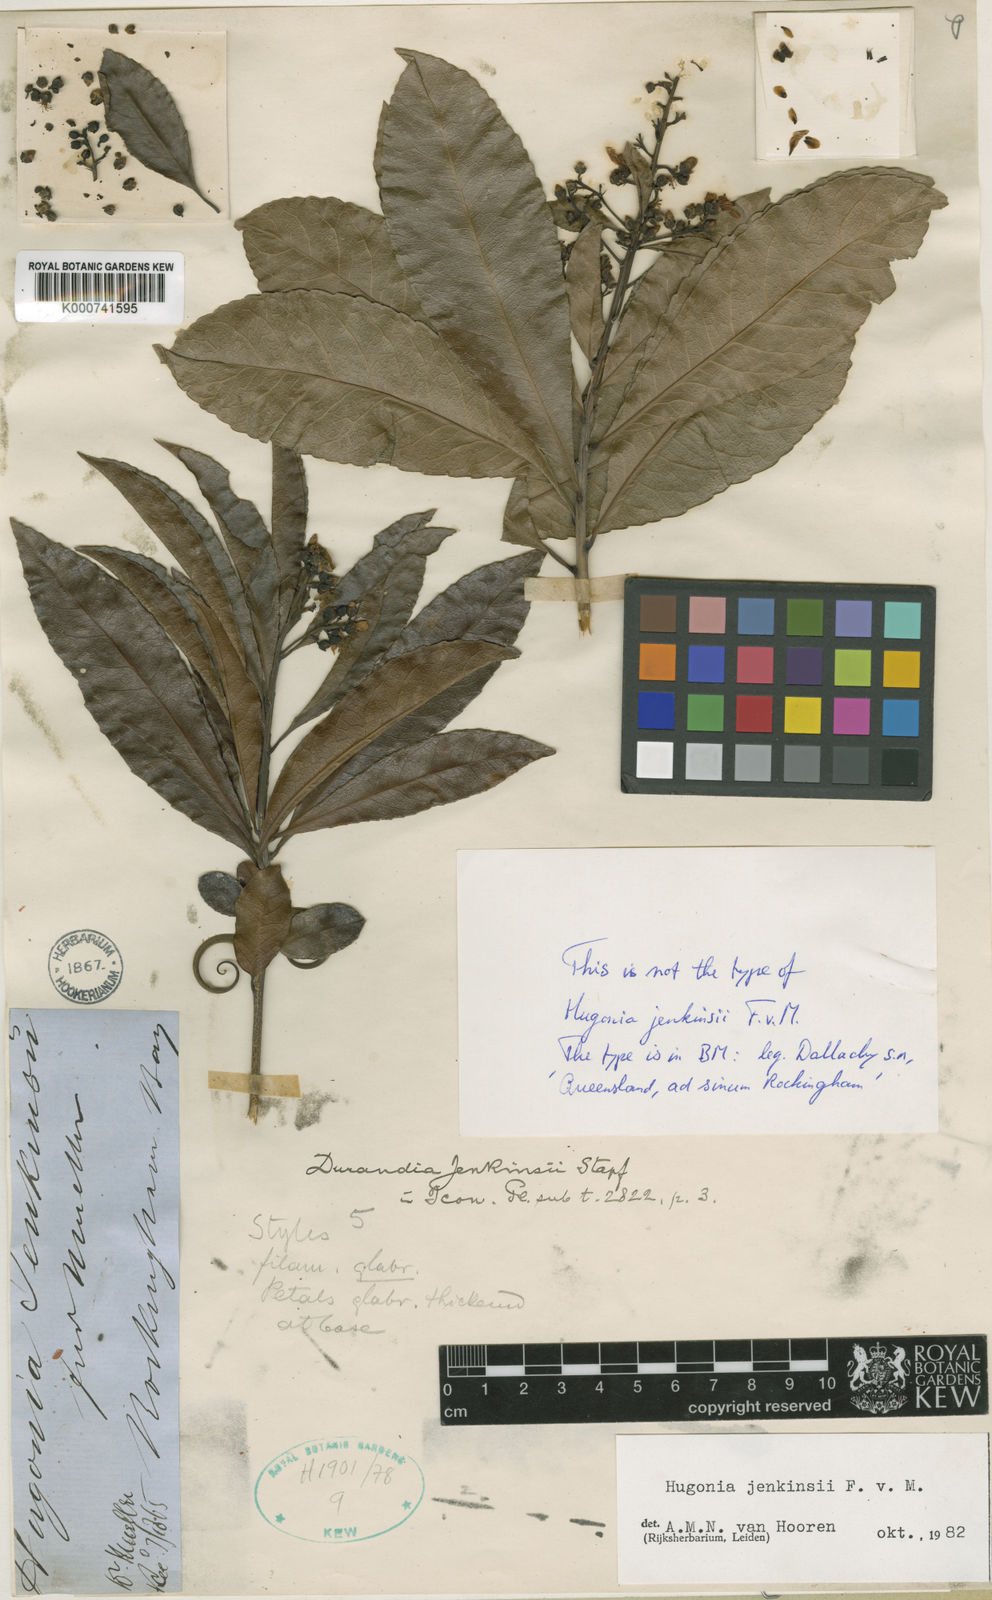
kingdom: Plantae
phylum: Tracheophyta
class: Magnoliopsida
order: Malpighiales
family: Linaceae
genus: Durandea
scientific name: Durandea jenkinsii
